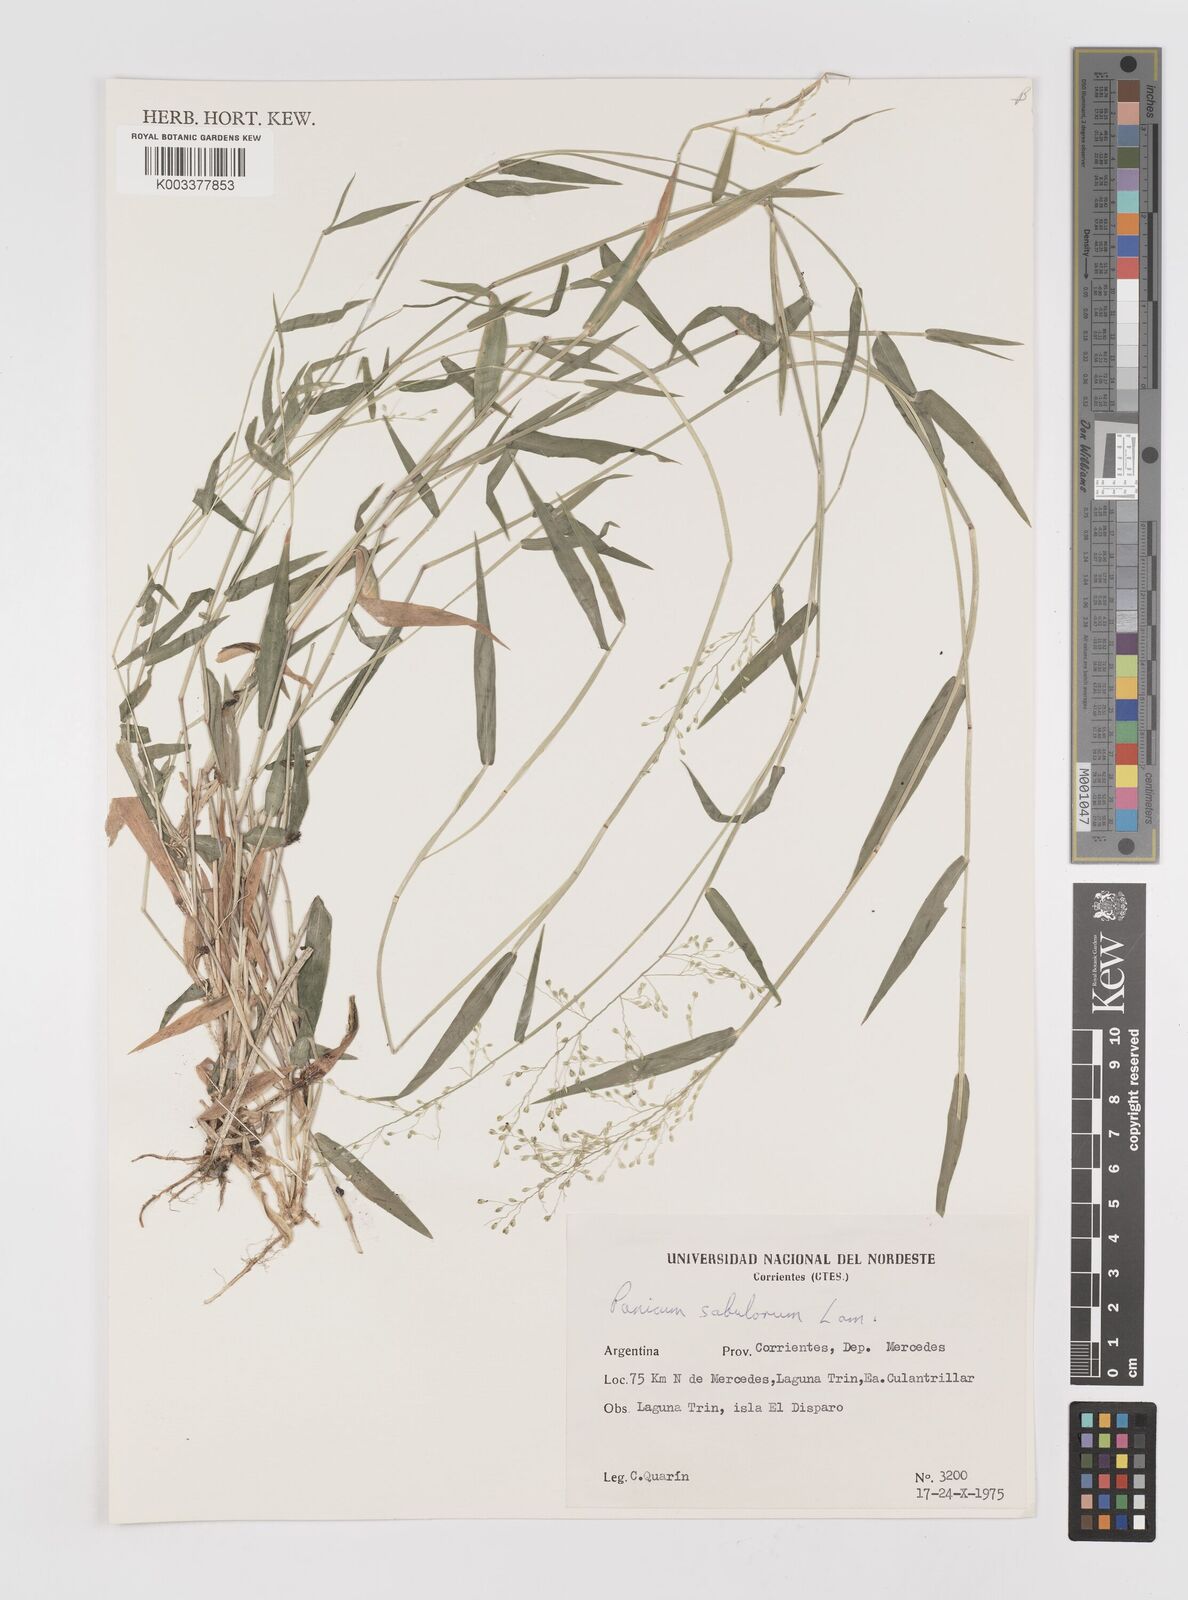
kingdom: Plantae
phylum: Tracheophyta
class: Liliopsida
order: Poales
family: Poaceae
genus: Dichanthelium
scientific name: Dichanthelium stigmosum
